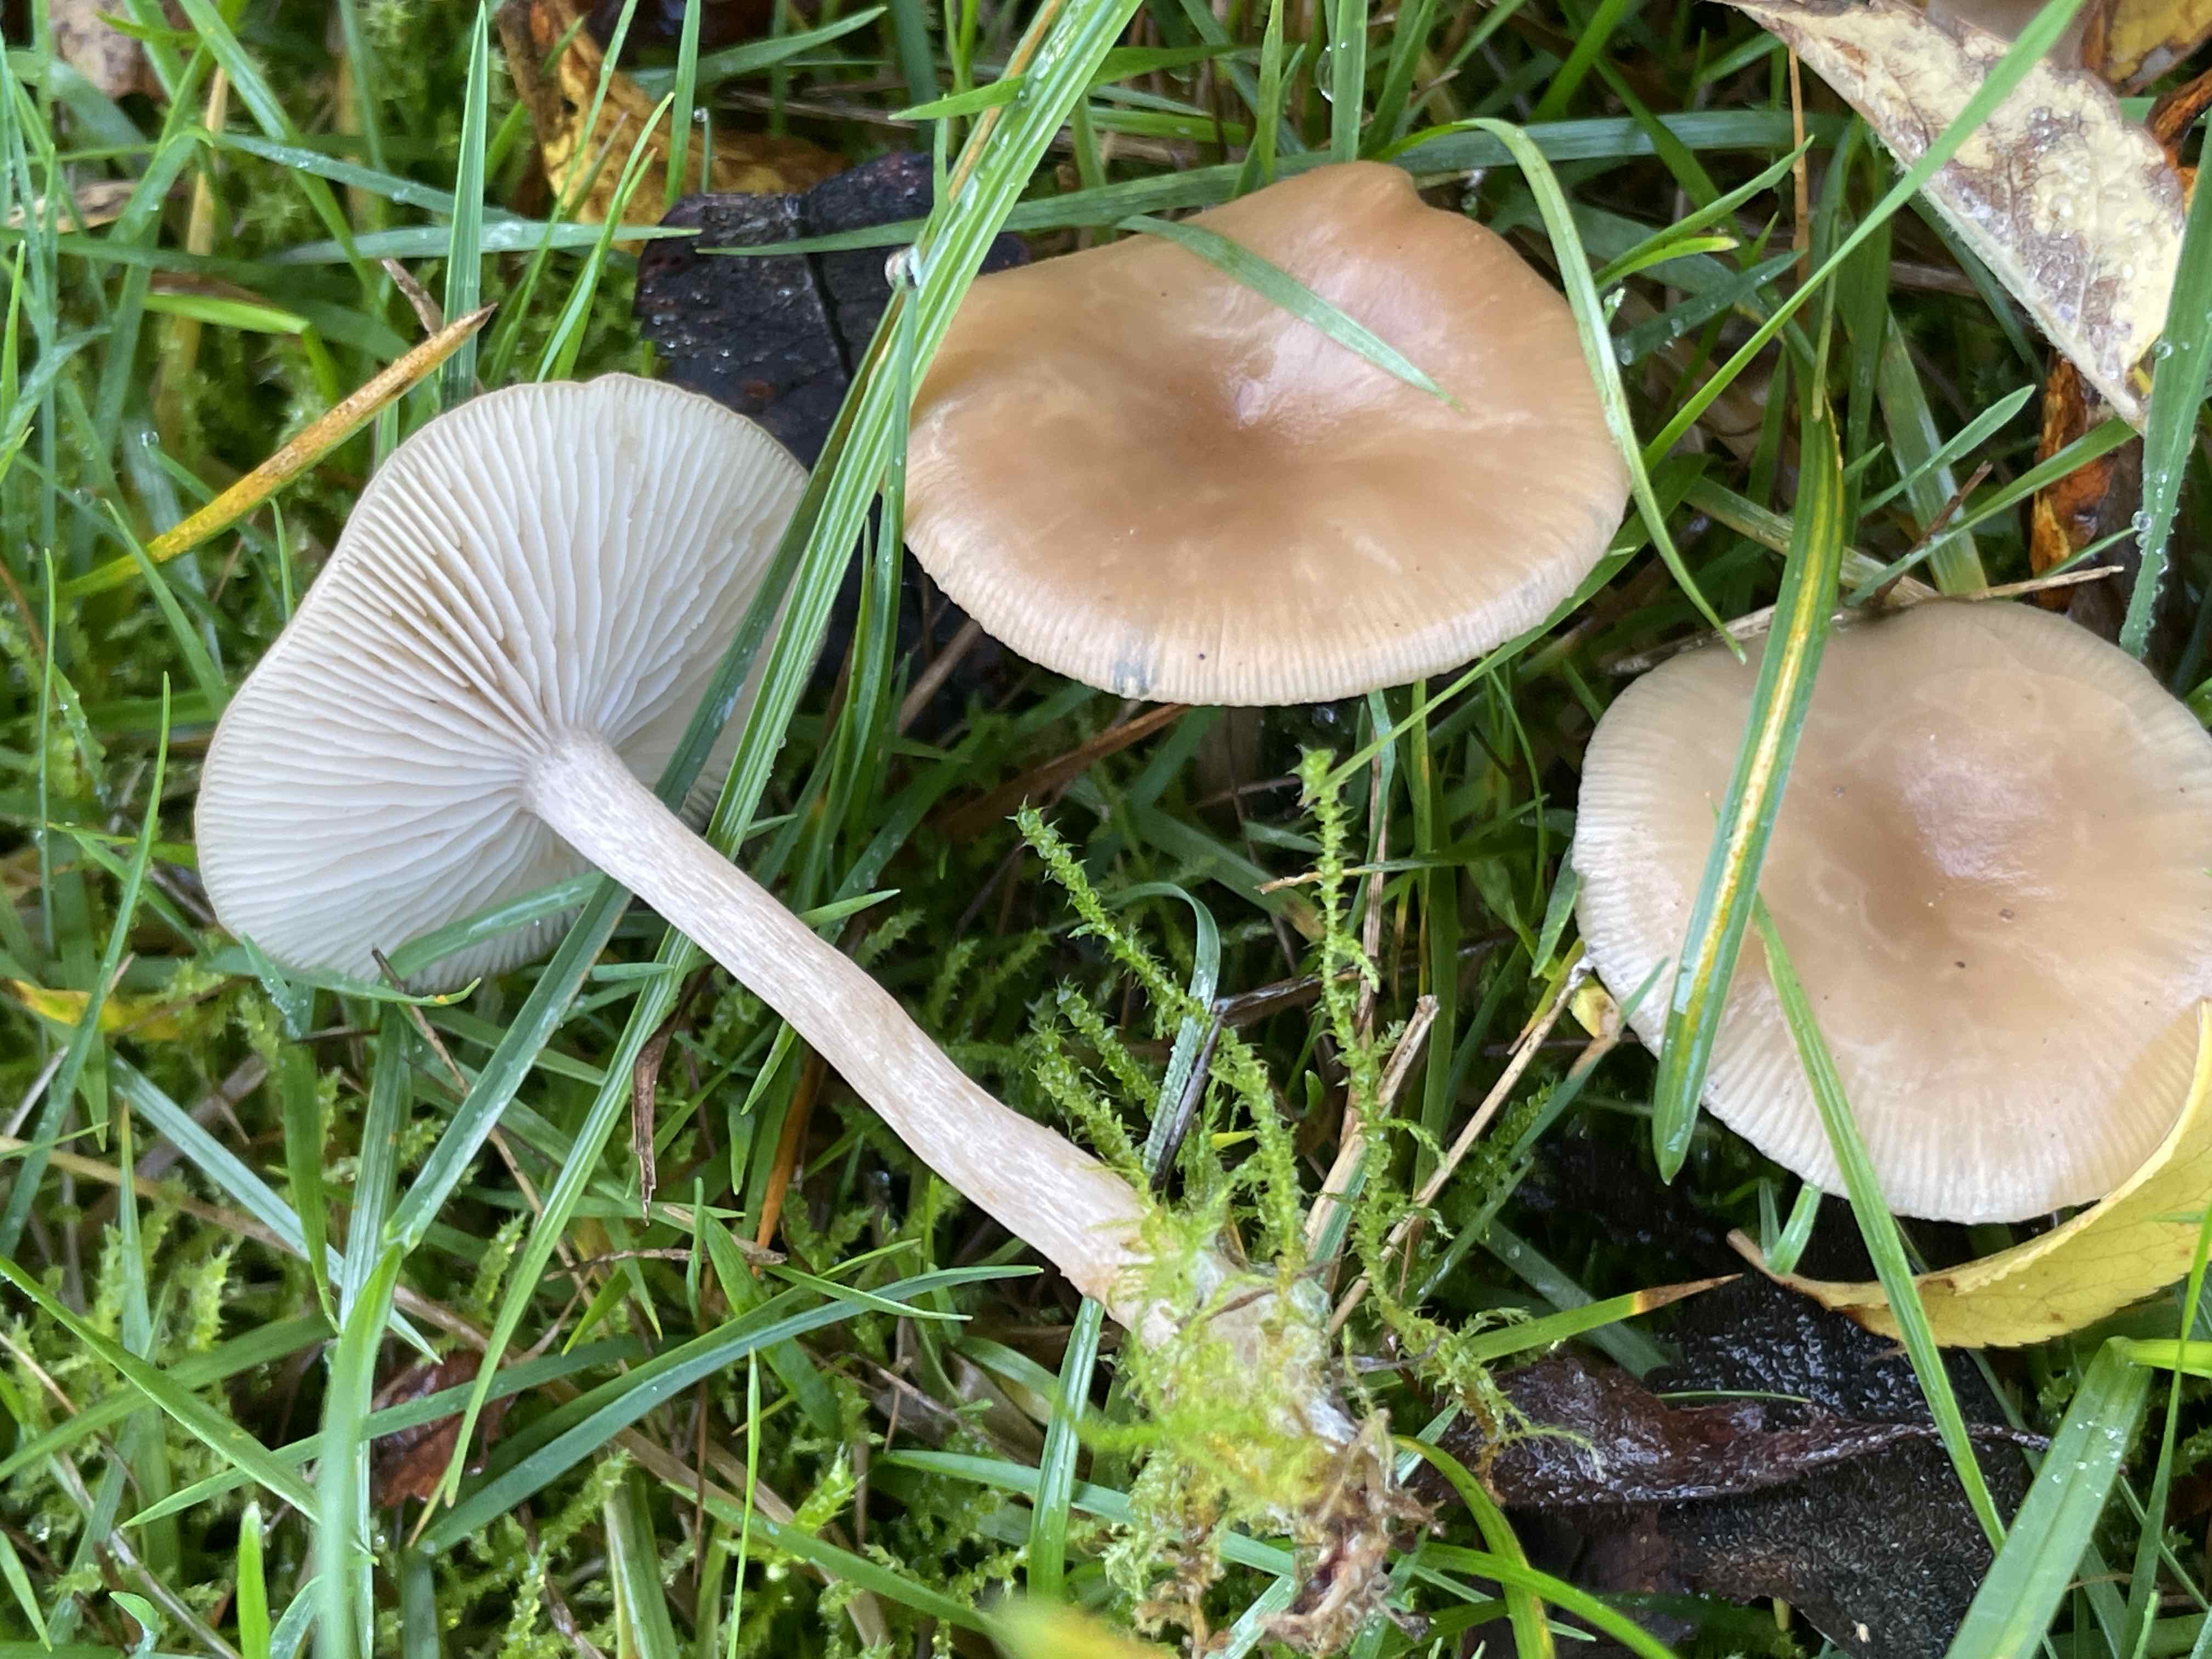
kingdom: Fungi
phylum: Basidiomycota
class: Agaricomycetes
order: Agaricales
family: Tricholomataceae
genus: Clitocybe
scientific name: Clitocybe fragrans
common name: vellugtende tragthat
